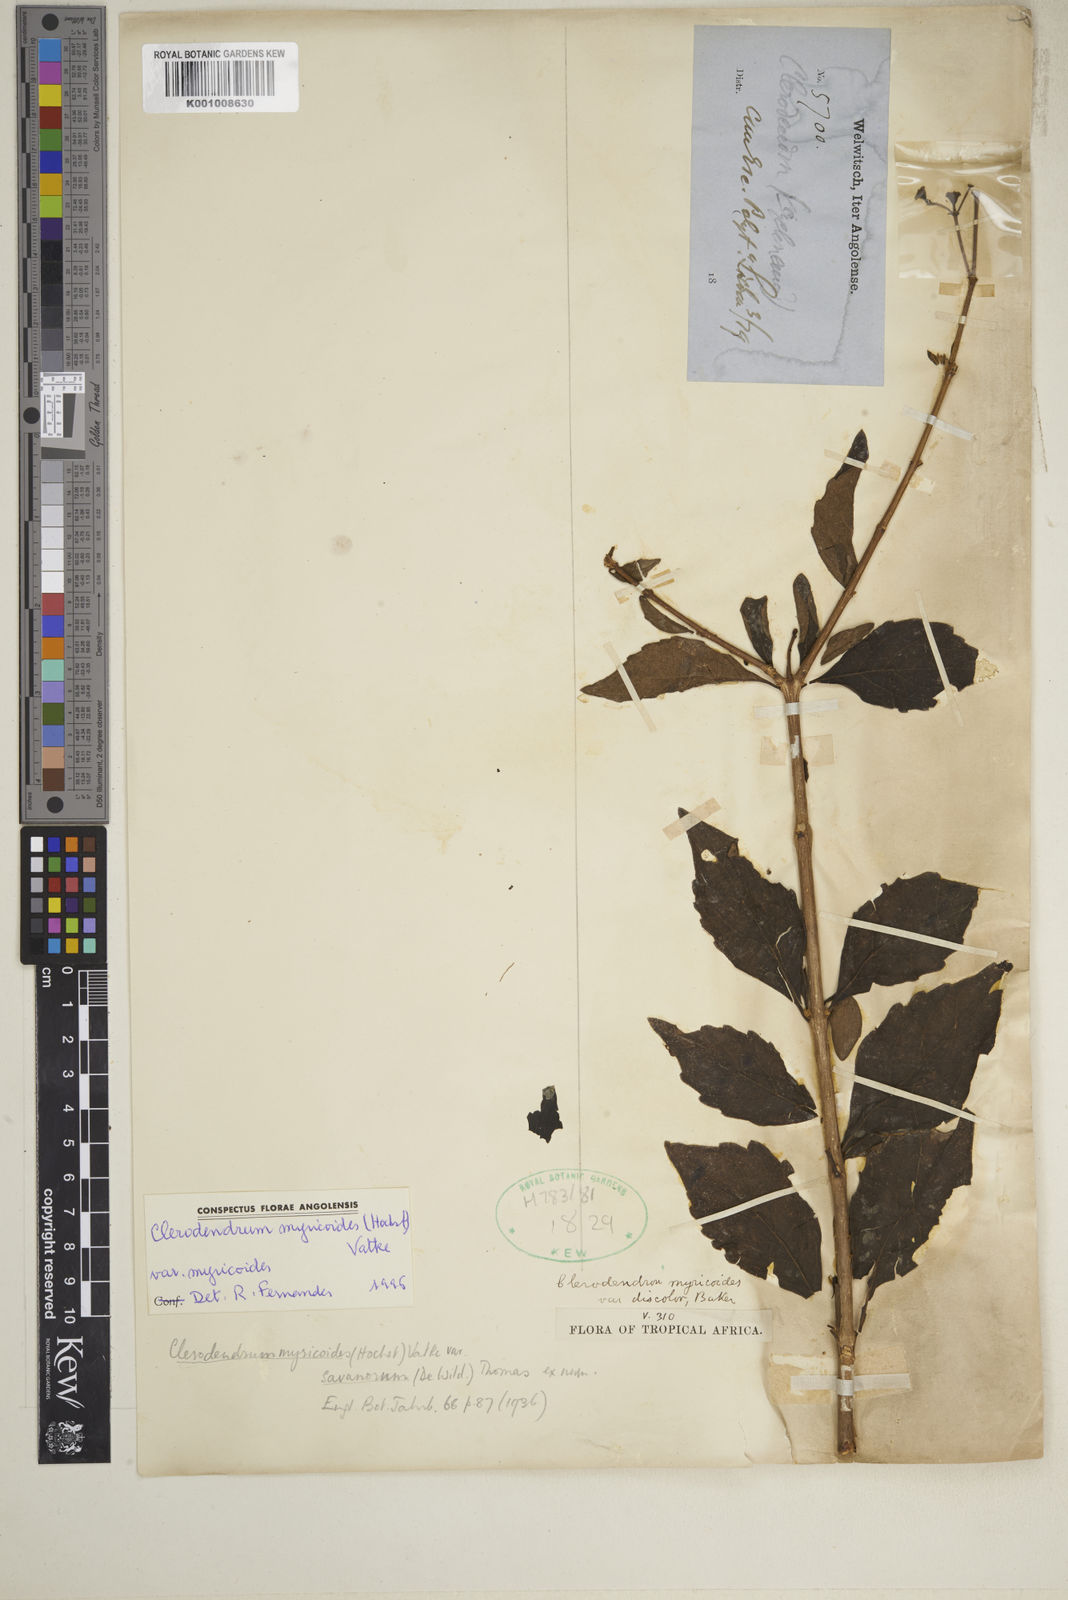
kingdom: Plantae
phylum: Tracheophyta
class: Magnoliopsida
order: Lamiales
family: Lamiaceae
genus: Rotheca
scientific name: Rotheca myricoides
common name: Cats-whiskers
